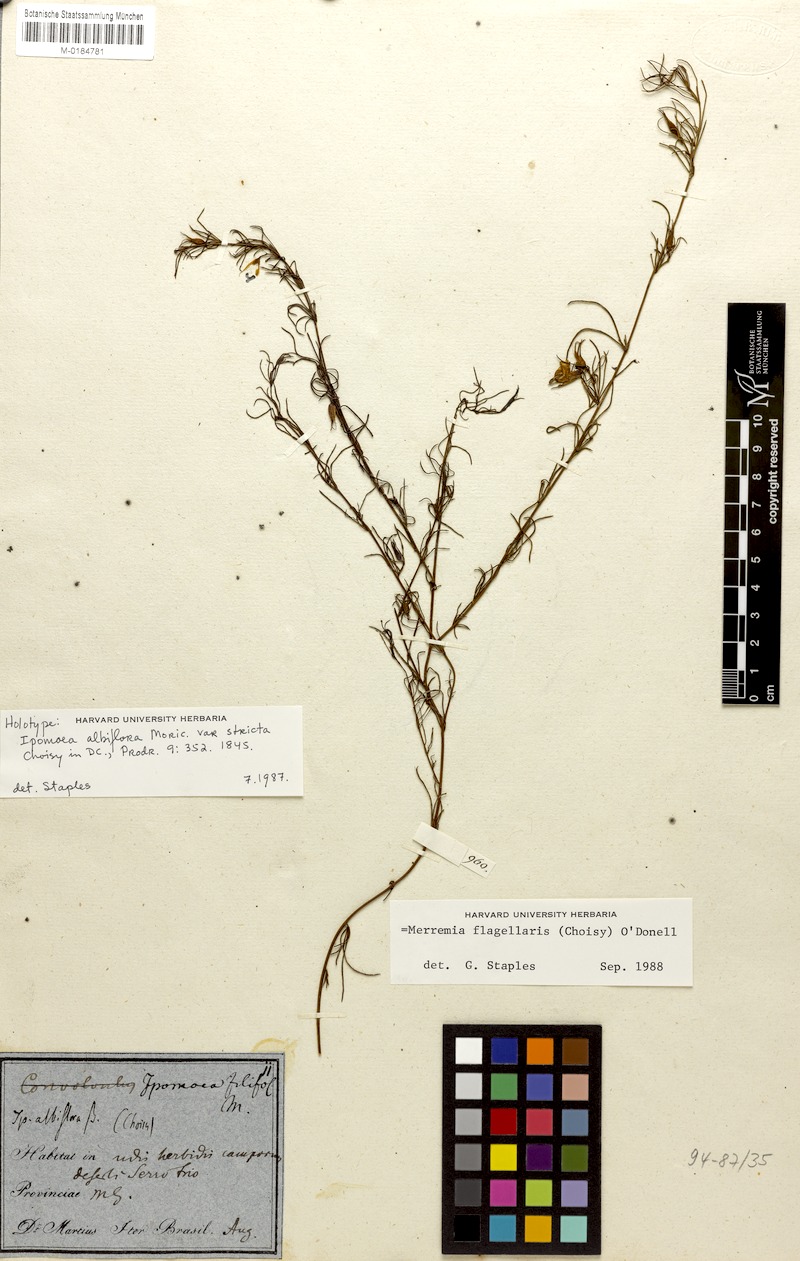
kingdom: Plantae
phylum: Tracheophyta
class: Magnoliopsida
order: Solanales
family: Convolvulaceae
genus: Distimake
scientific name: Distimake flagellaris
